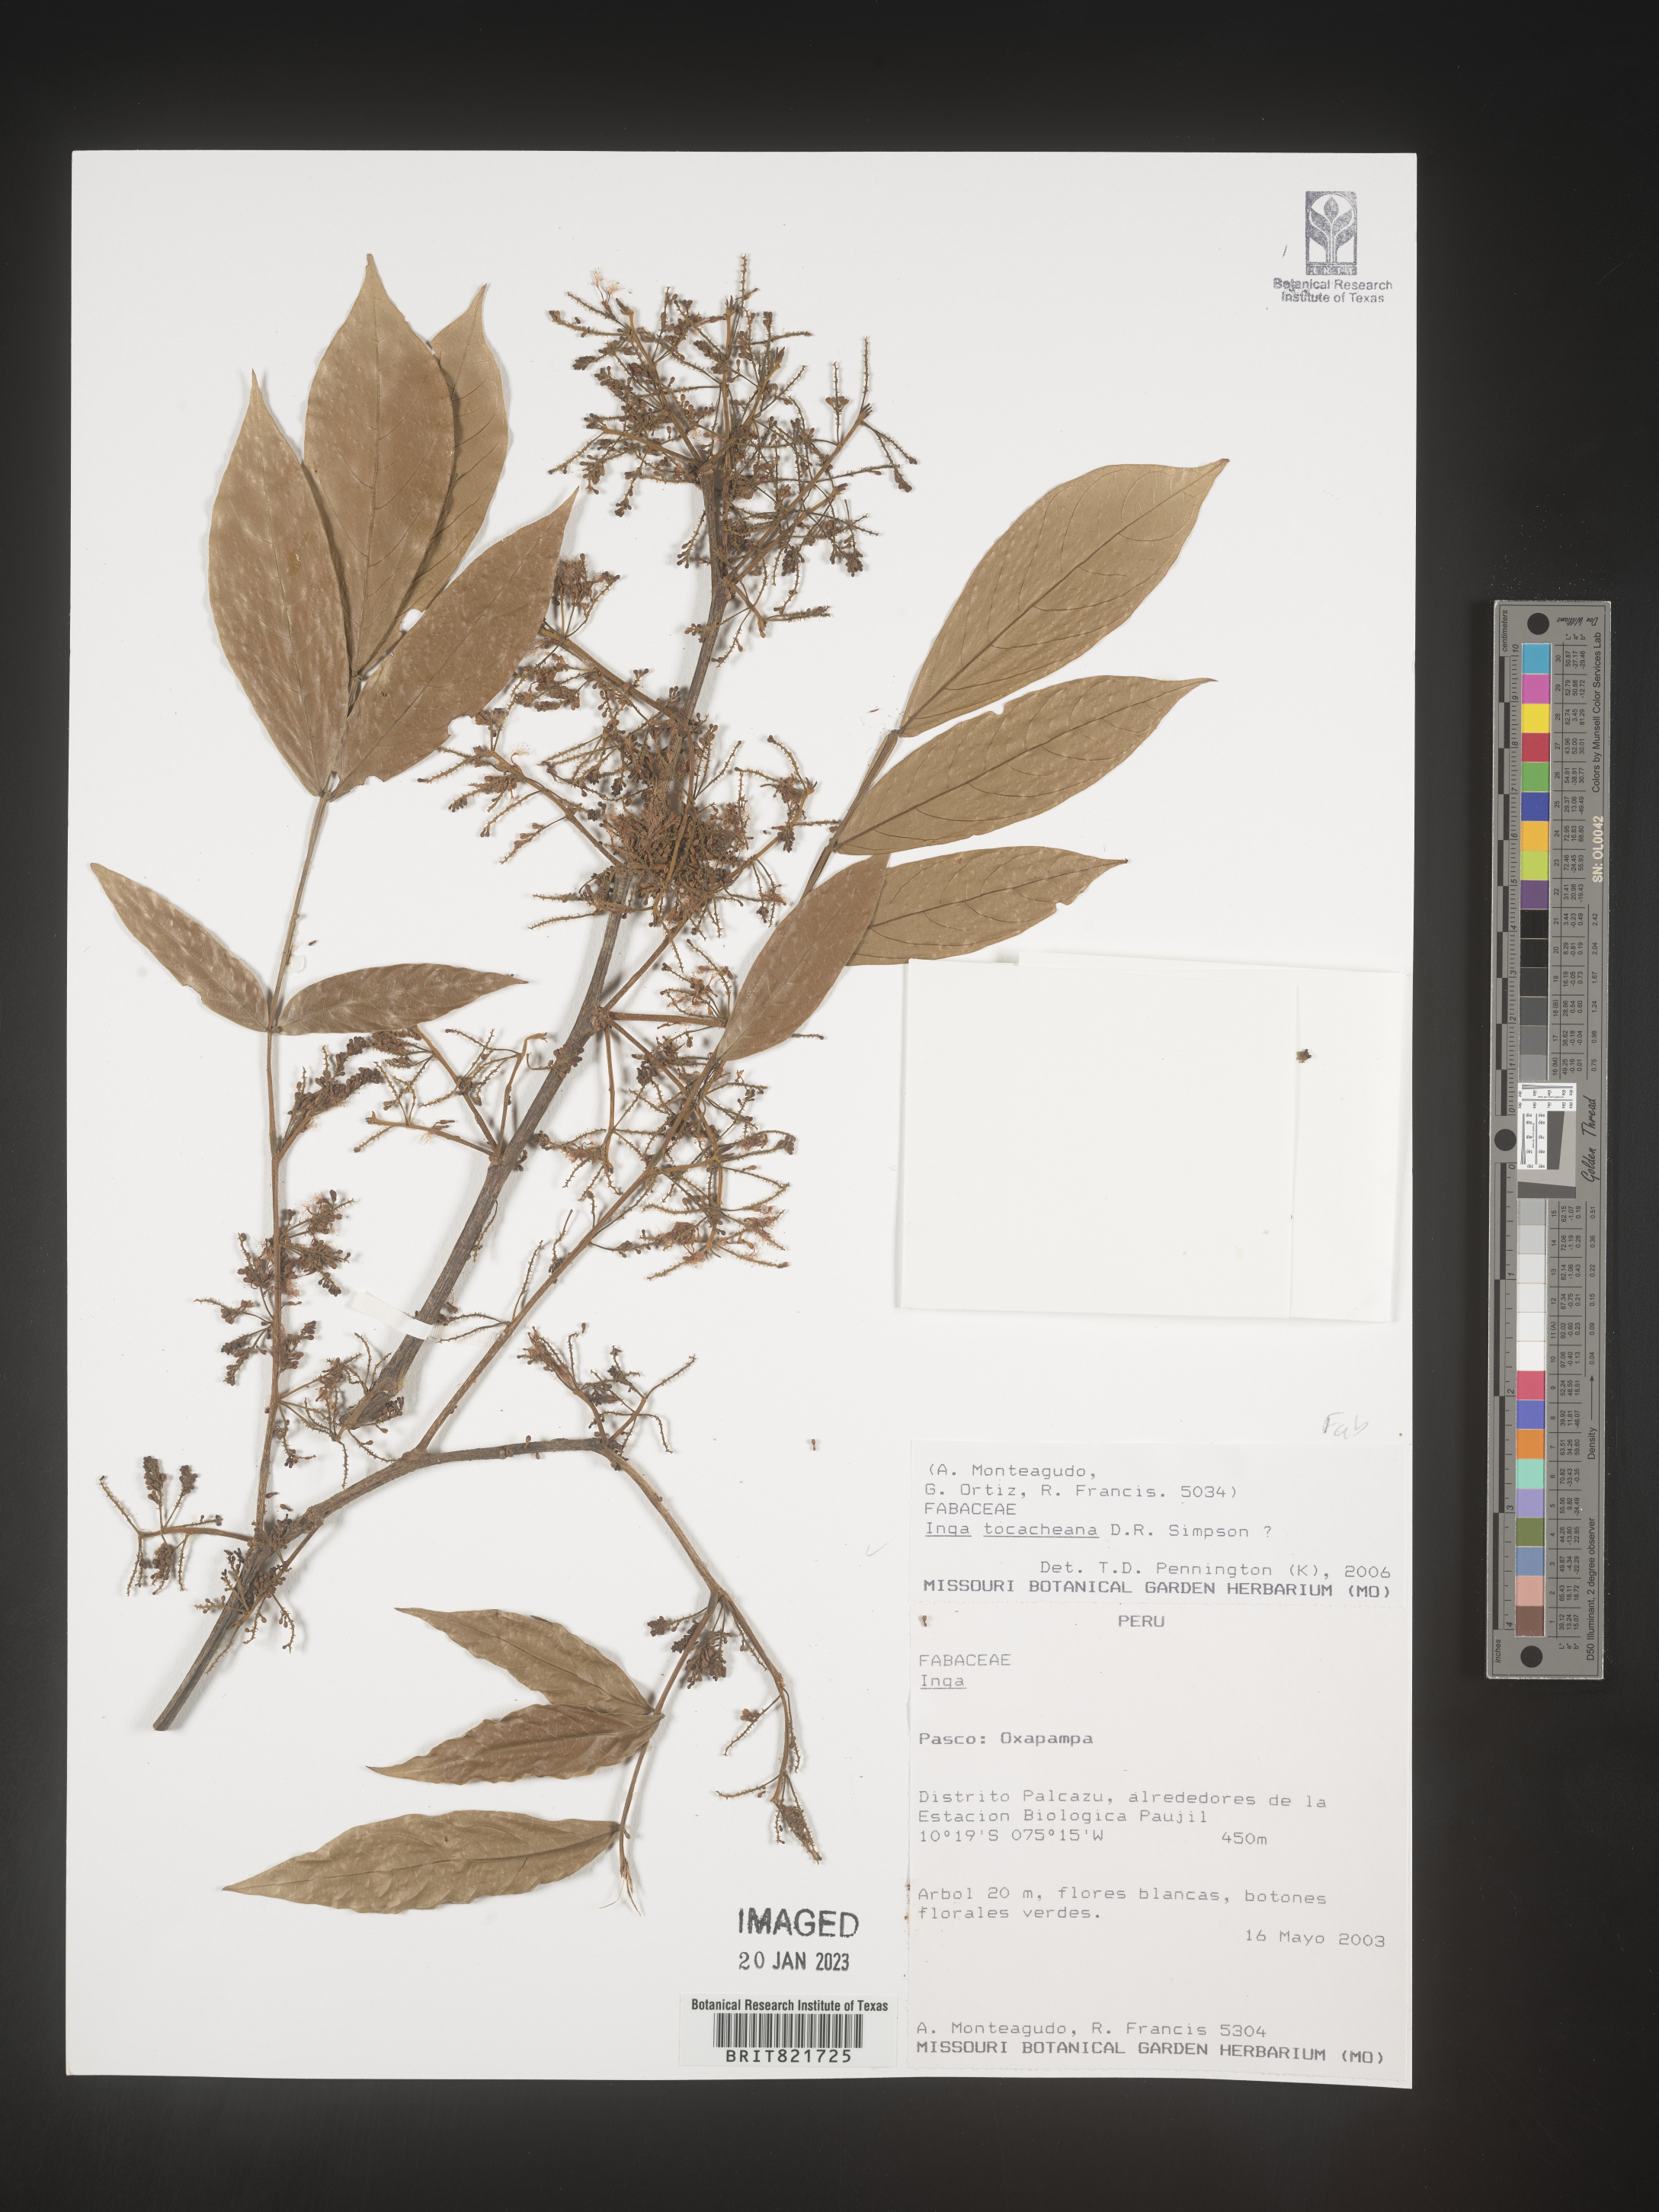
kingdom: Plantae
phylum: Tracheophyta
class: Magnoliopsida
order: Fabales
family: Fabaceae
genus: Inga
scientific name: Inga
